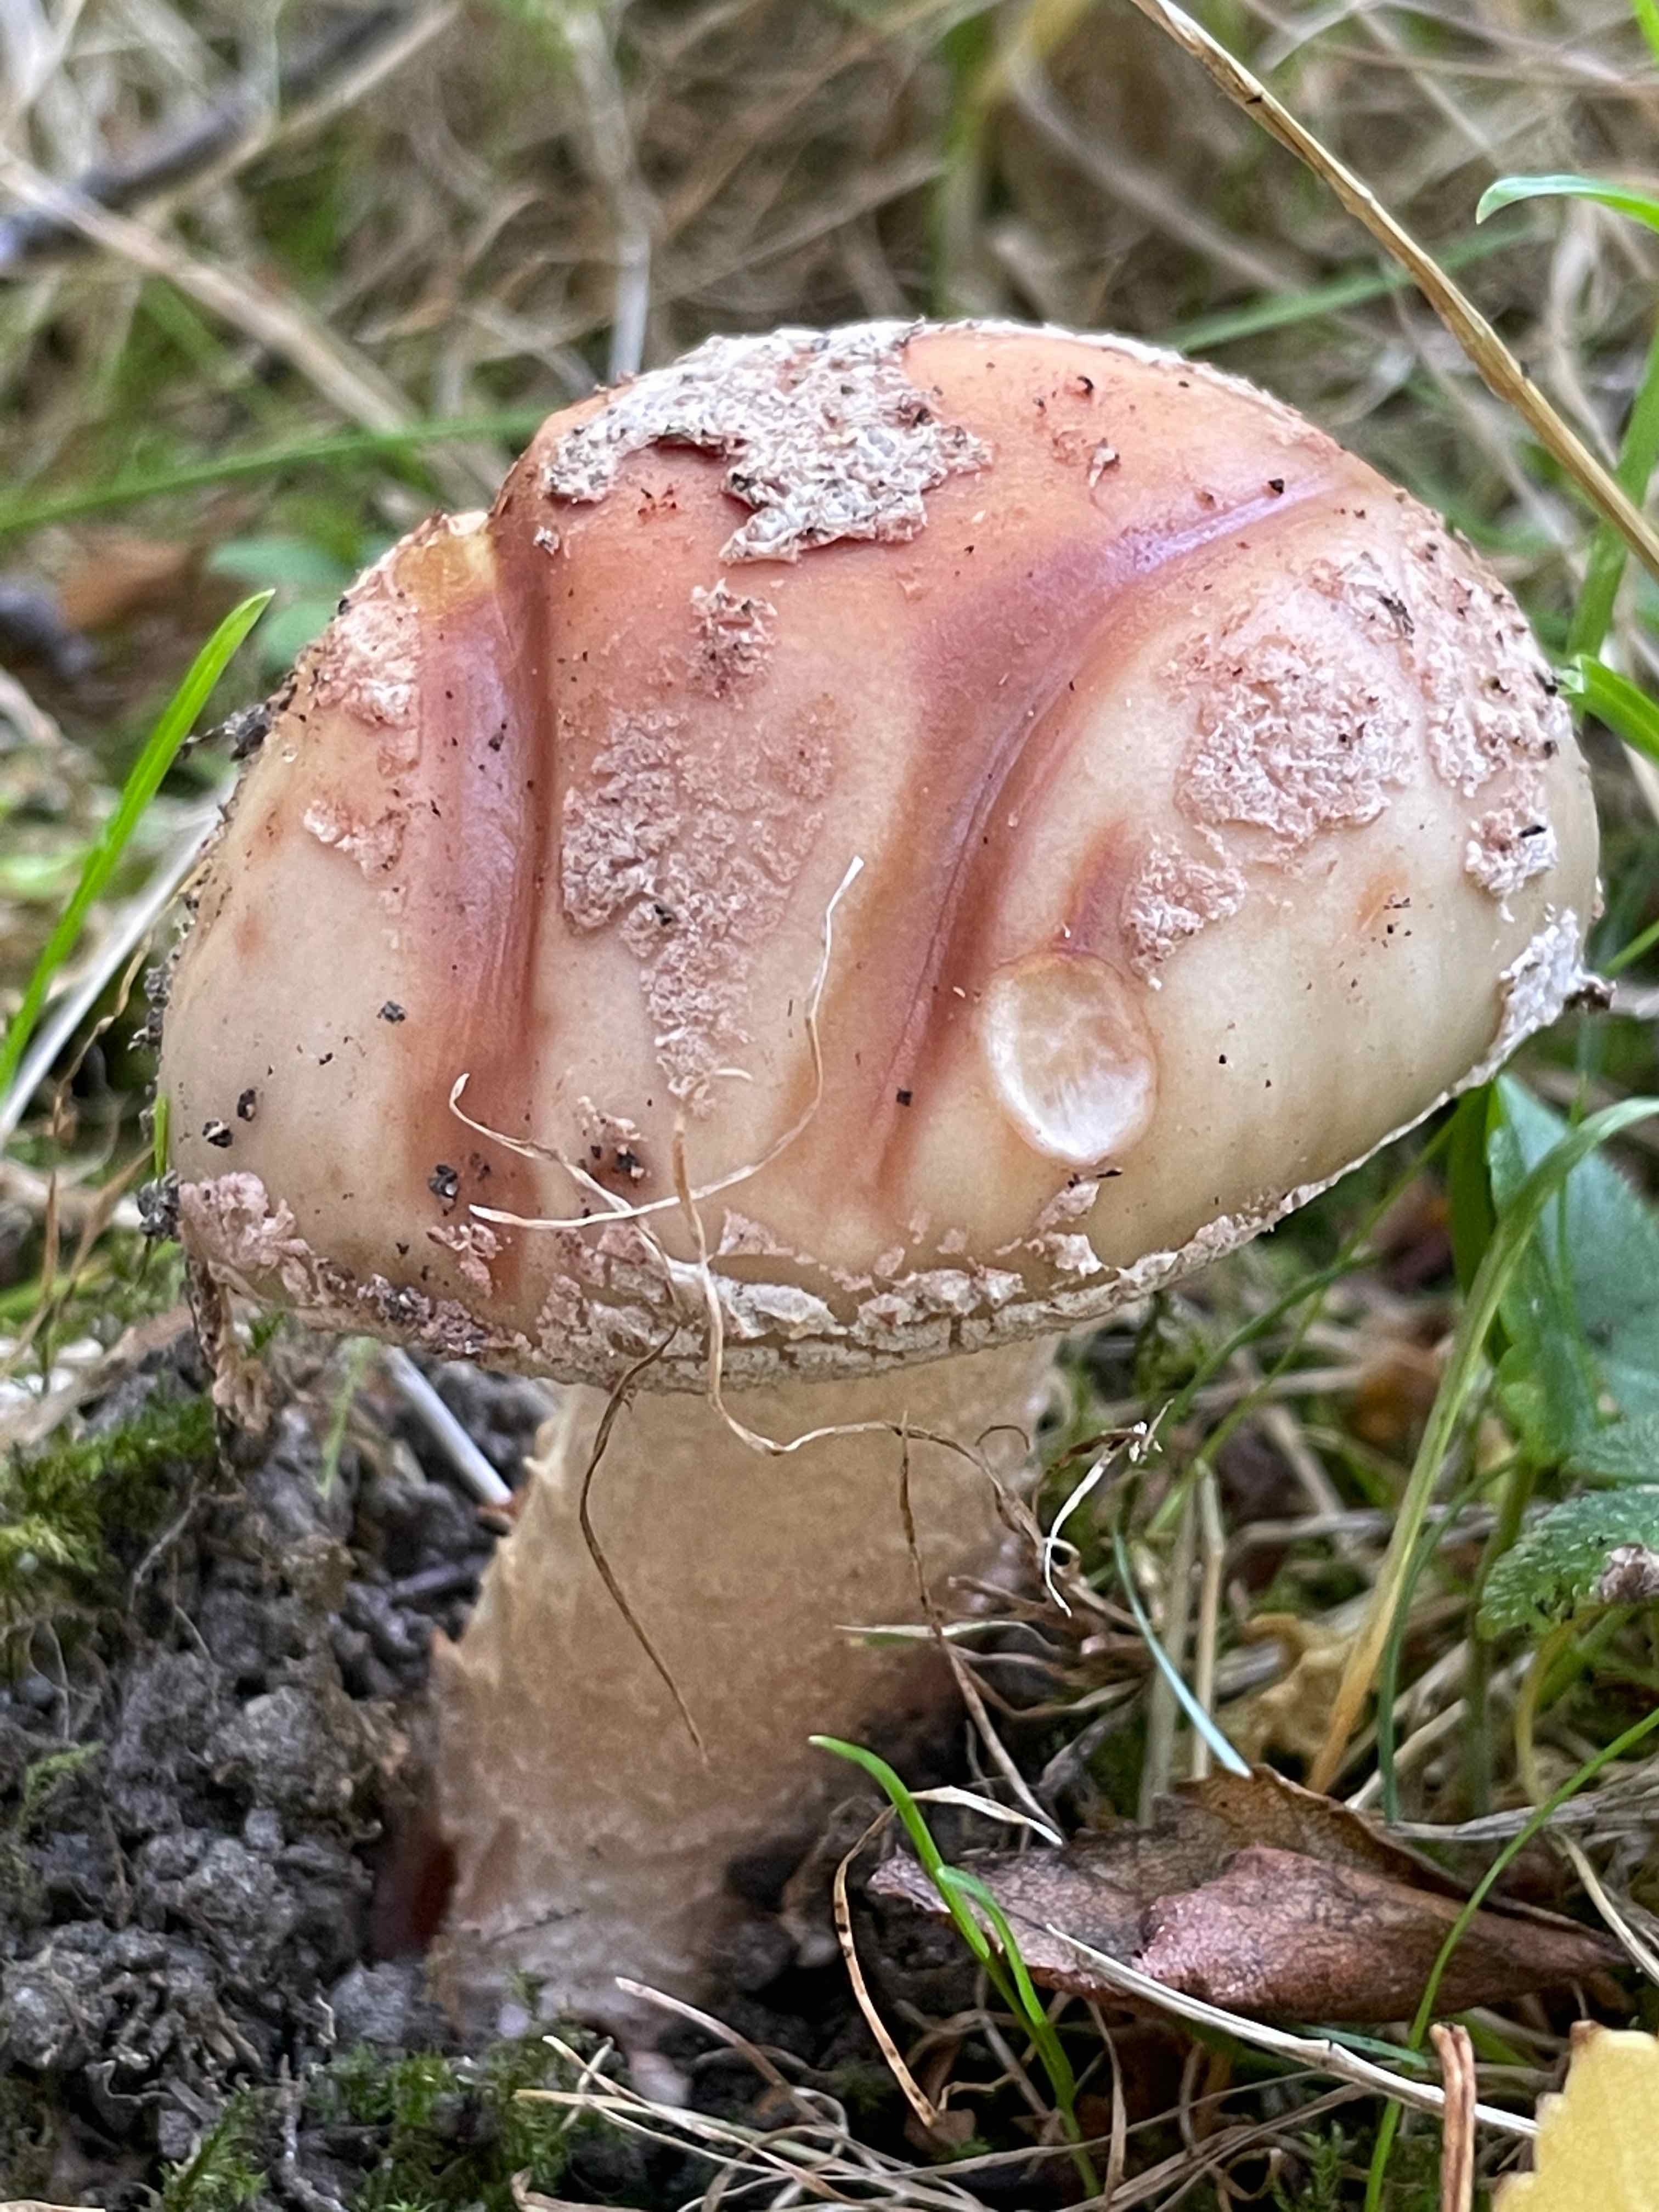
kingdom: Fungi
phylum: Basidiomycota
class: Agaricomycetes
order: Agaricales
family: Amanitaceae
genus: Amanita
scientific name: Amanita rubescens
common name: rødmende fluesvamp
